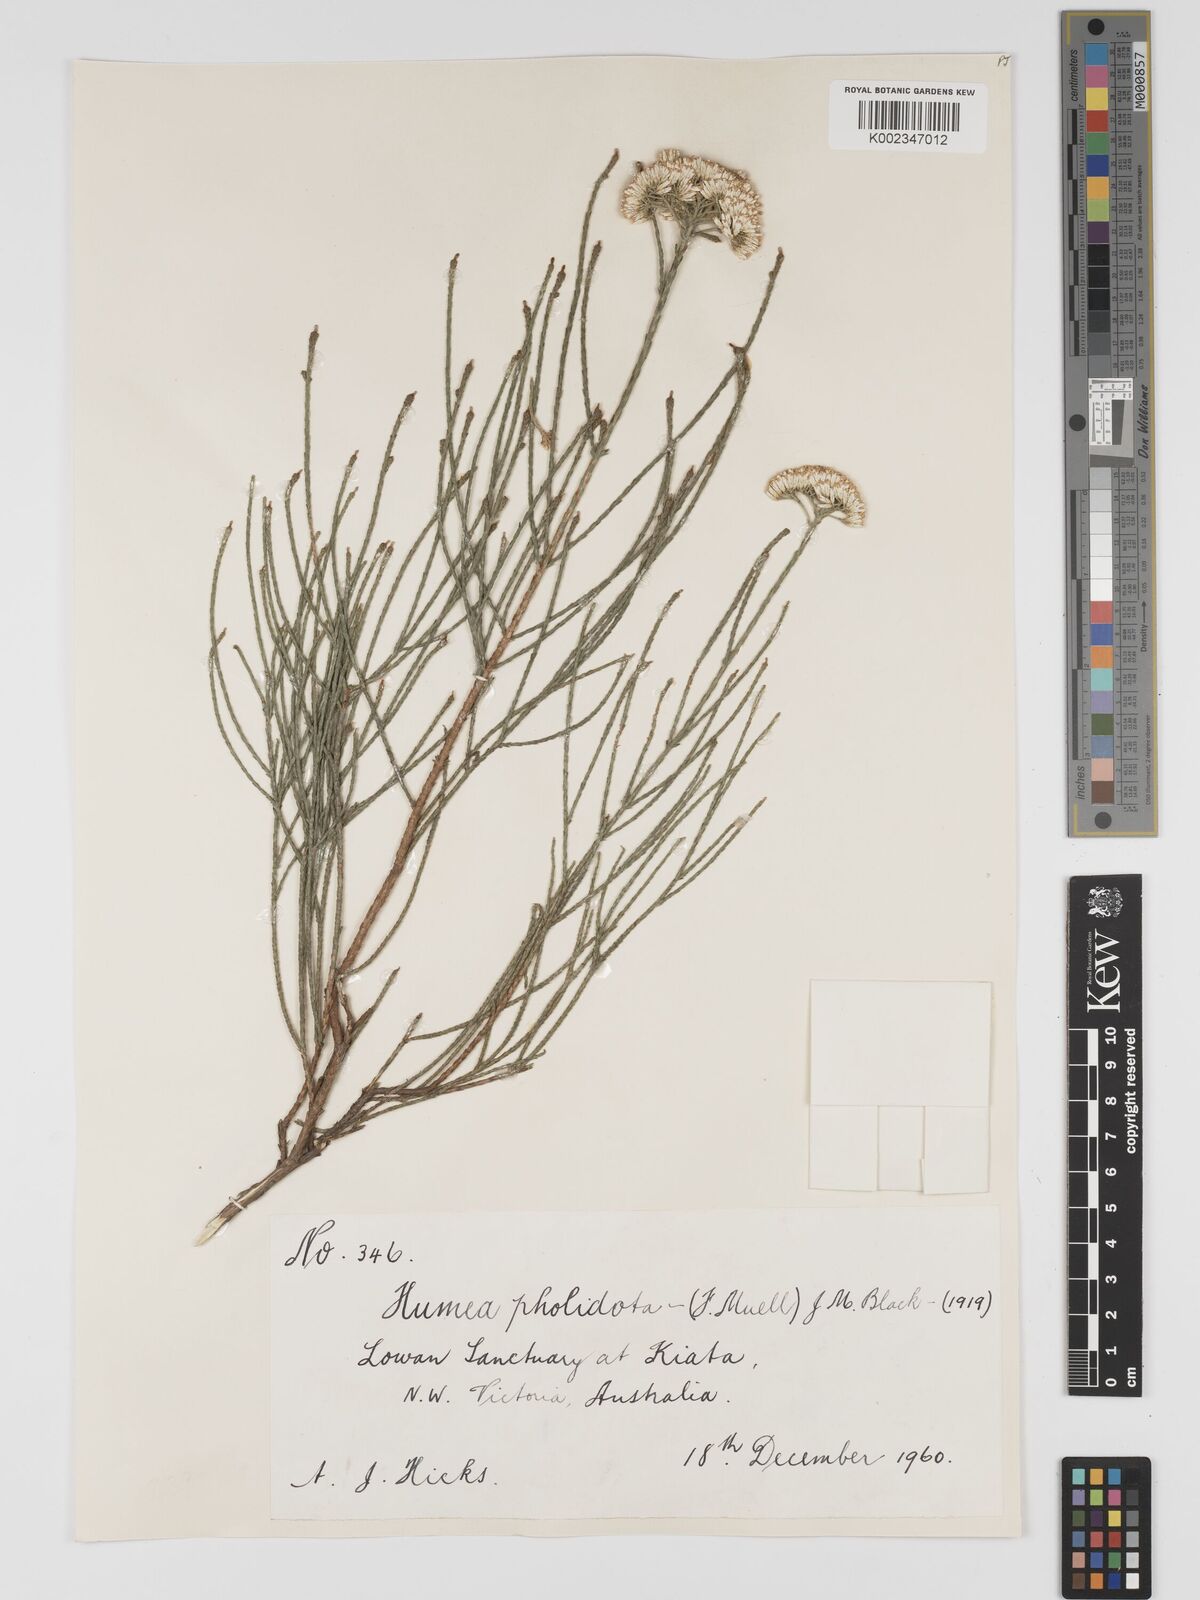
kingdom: Plantae
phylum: Tracheophyta
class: Magnoliopsida
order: Asterales
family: Asteraceae
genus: Haeckeria
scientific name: Haeckeria pholidota
